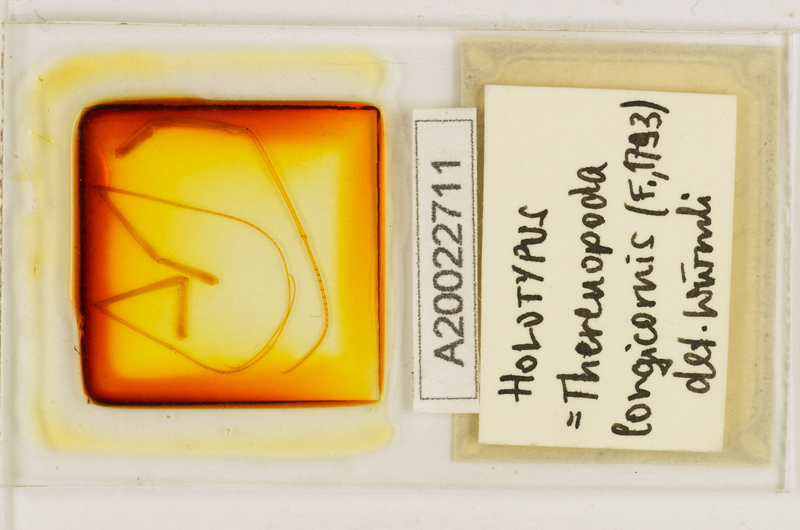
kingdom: Animalia
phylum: Arthropoda
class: Chilopoda
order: Scutigeromorpha
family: Scutigeridae
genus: Thereuopoda
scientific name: Thereuopoda longicornis
